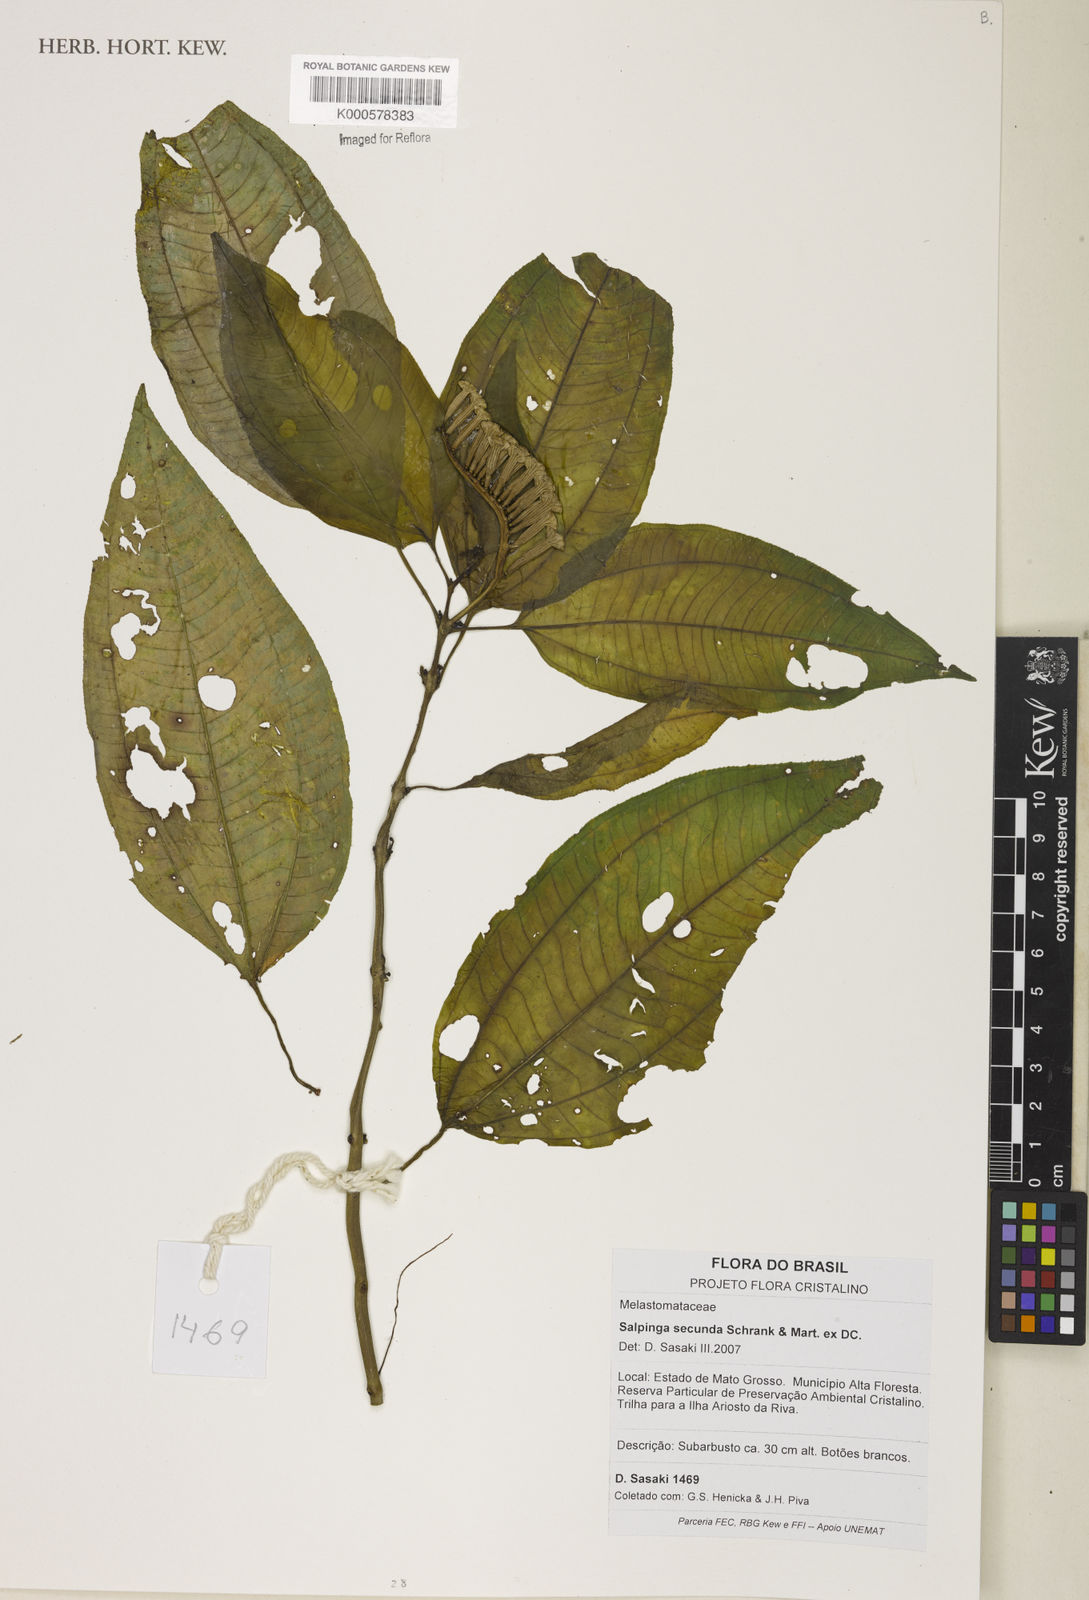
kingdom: Plantae
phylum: Tracheophyta
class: Magnoliopsida
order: Myrtales
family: Melastomataceae
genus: Salpinga
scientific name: Salpinga secunda
